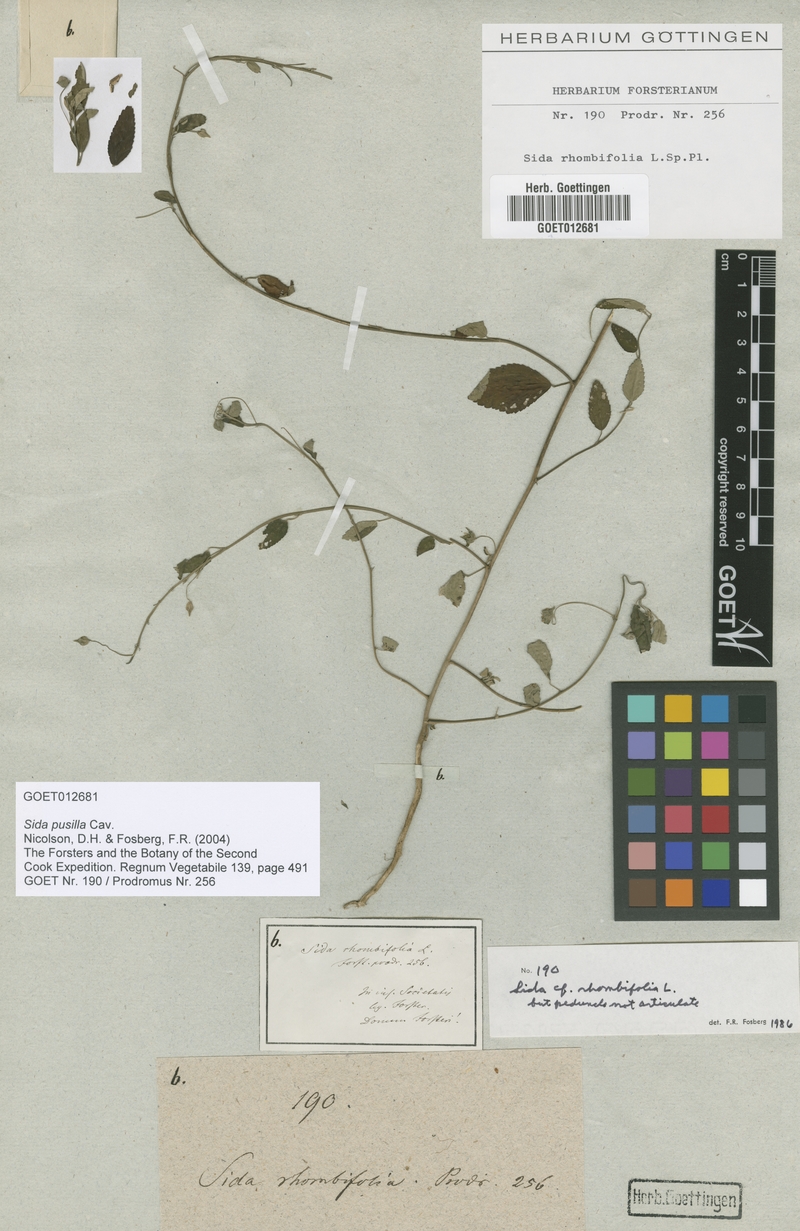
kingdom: Plantae
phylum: Tracheophyta
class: Magnoliopsida
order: Malvales
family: Malvaceae
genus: Sida
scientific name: Sida pusilla
